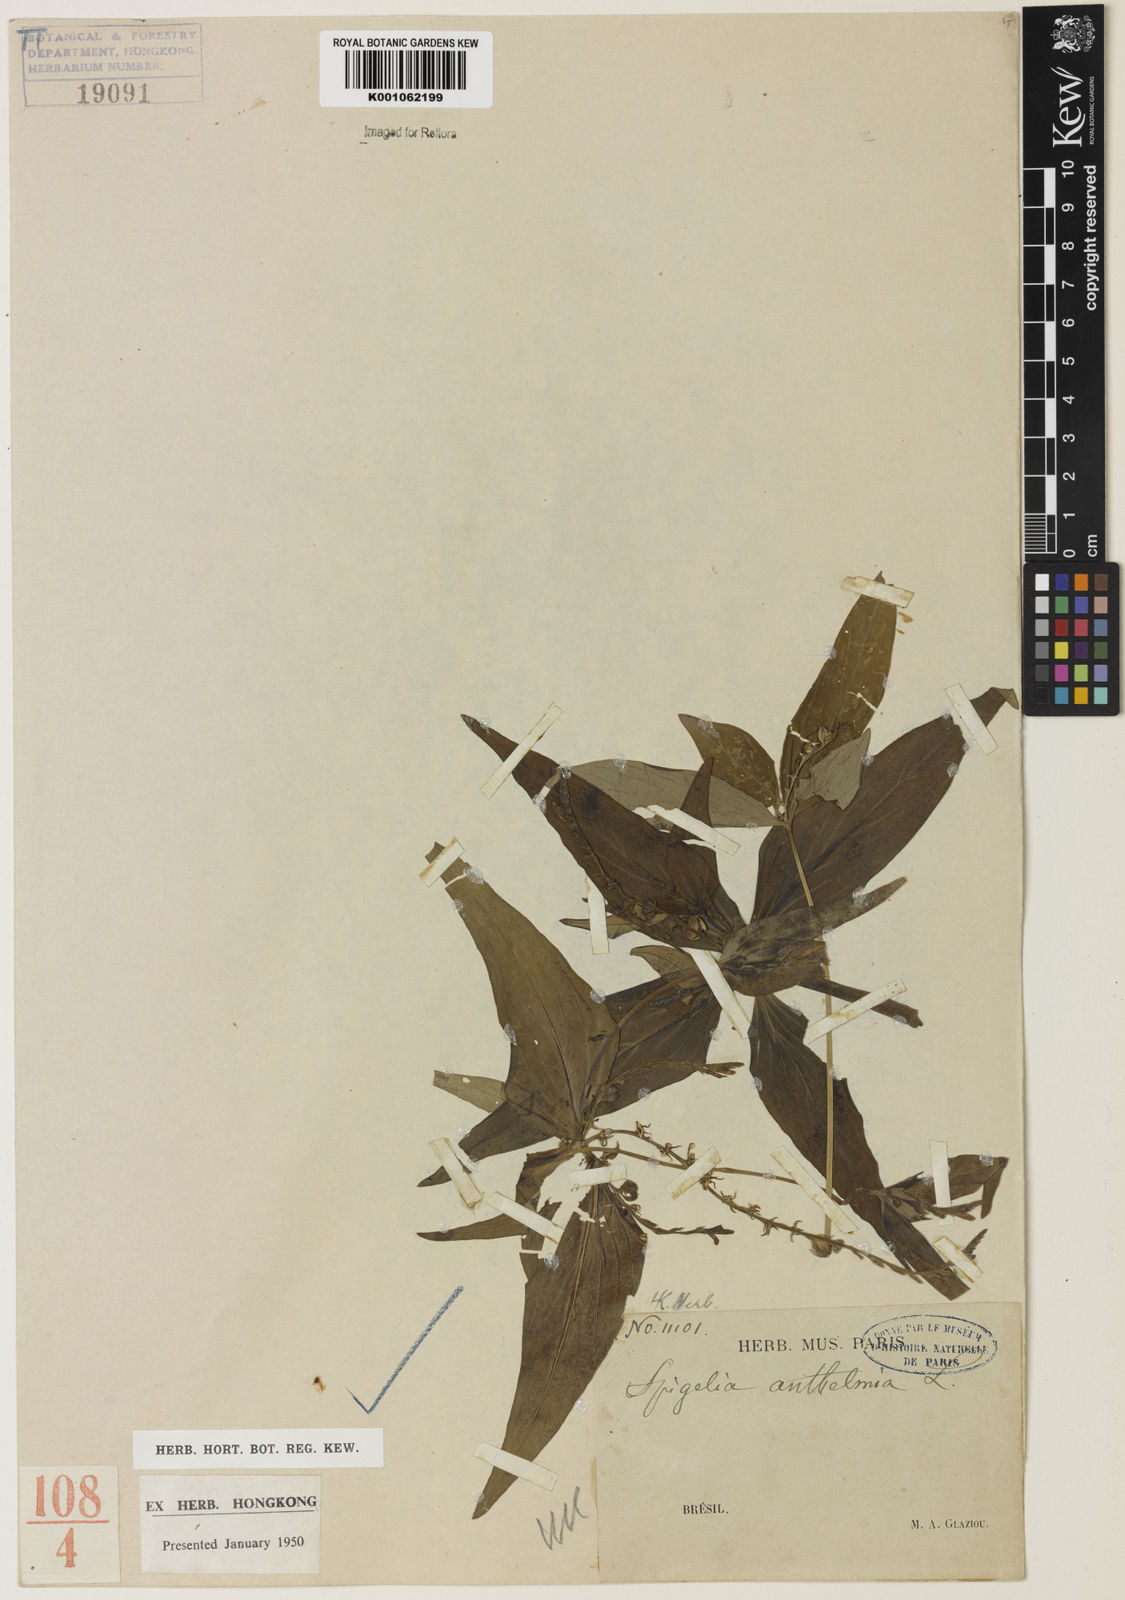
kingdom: Plantae
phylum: Tracheophyta
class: Magnoliopsida
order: Gentianales
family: Loganiaceae
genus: Spigelia
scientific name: Spigelia anthelmia
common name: West indian-pink
